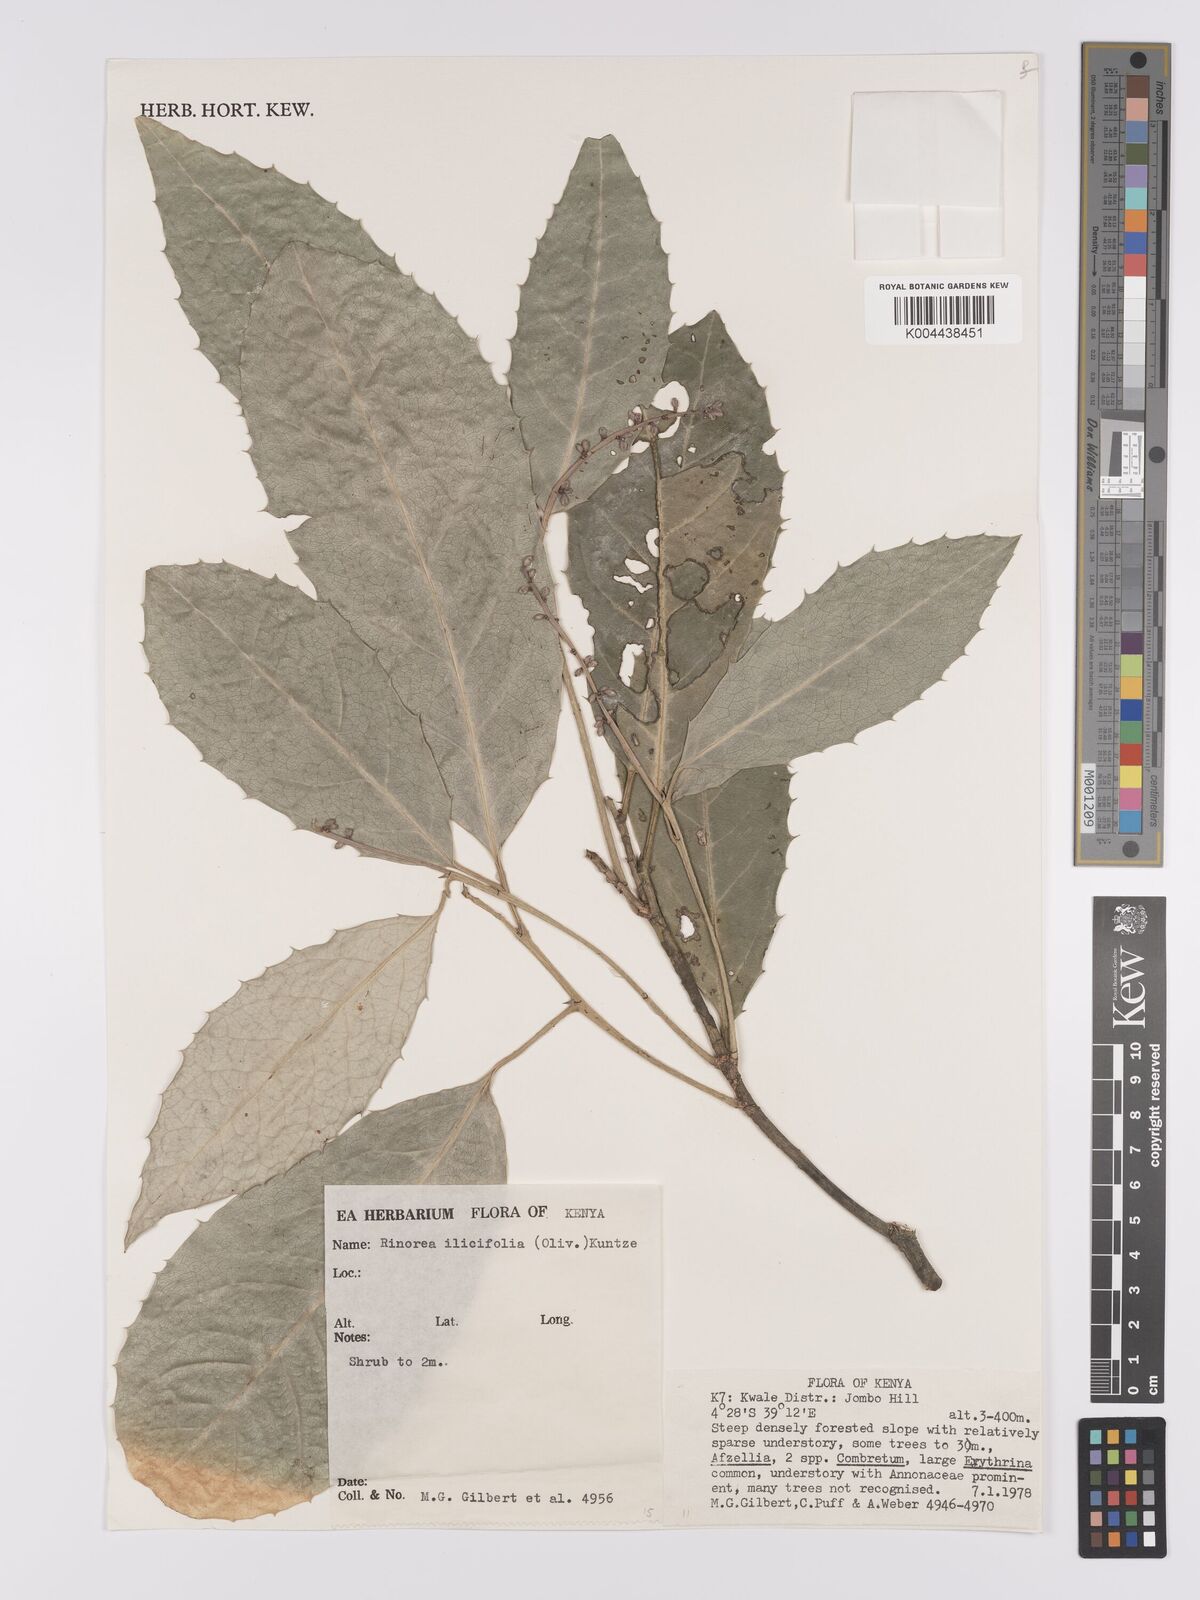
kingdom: Plantae
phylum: Tracheophyta
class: Magnoliopsida
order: Malpighiales
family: Violaceae
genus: Rinorea
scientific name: Rinorea ilicifolia
